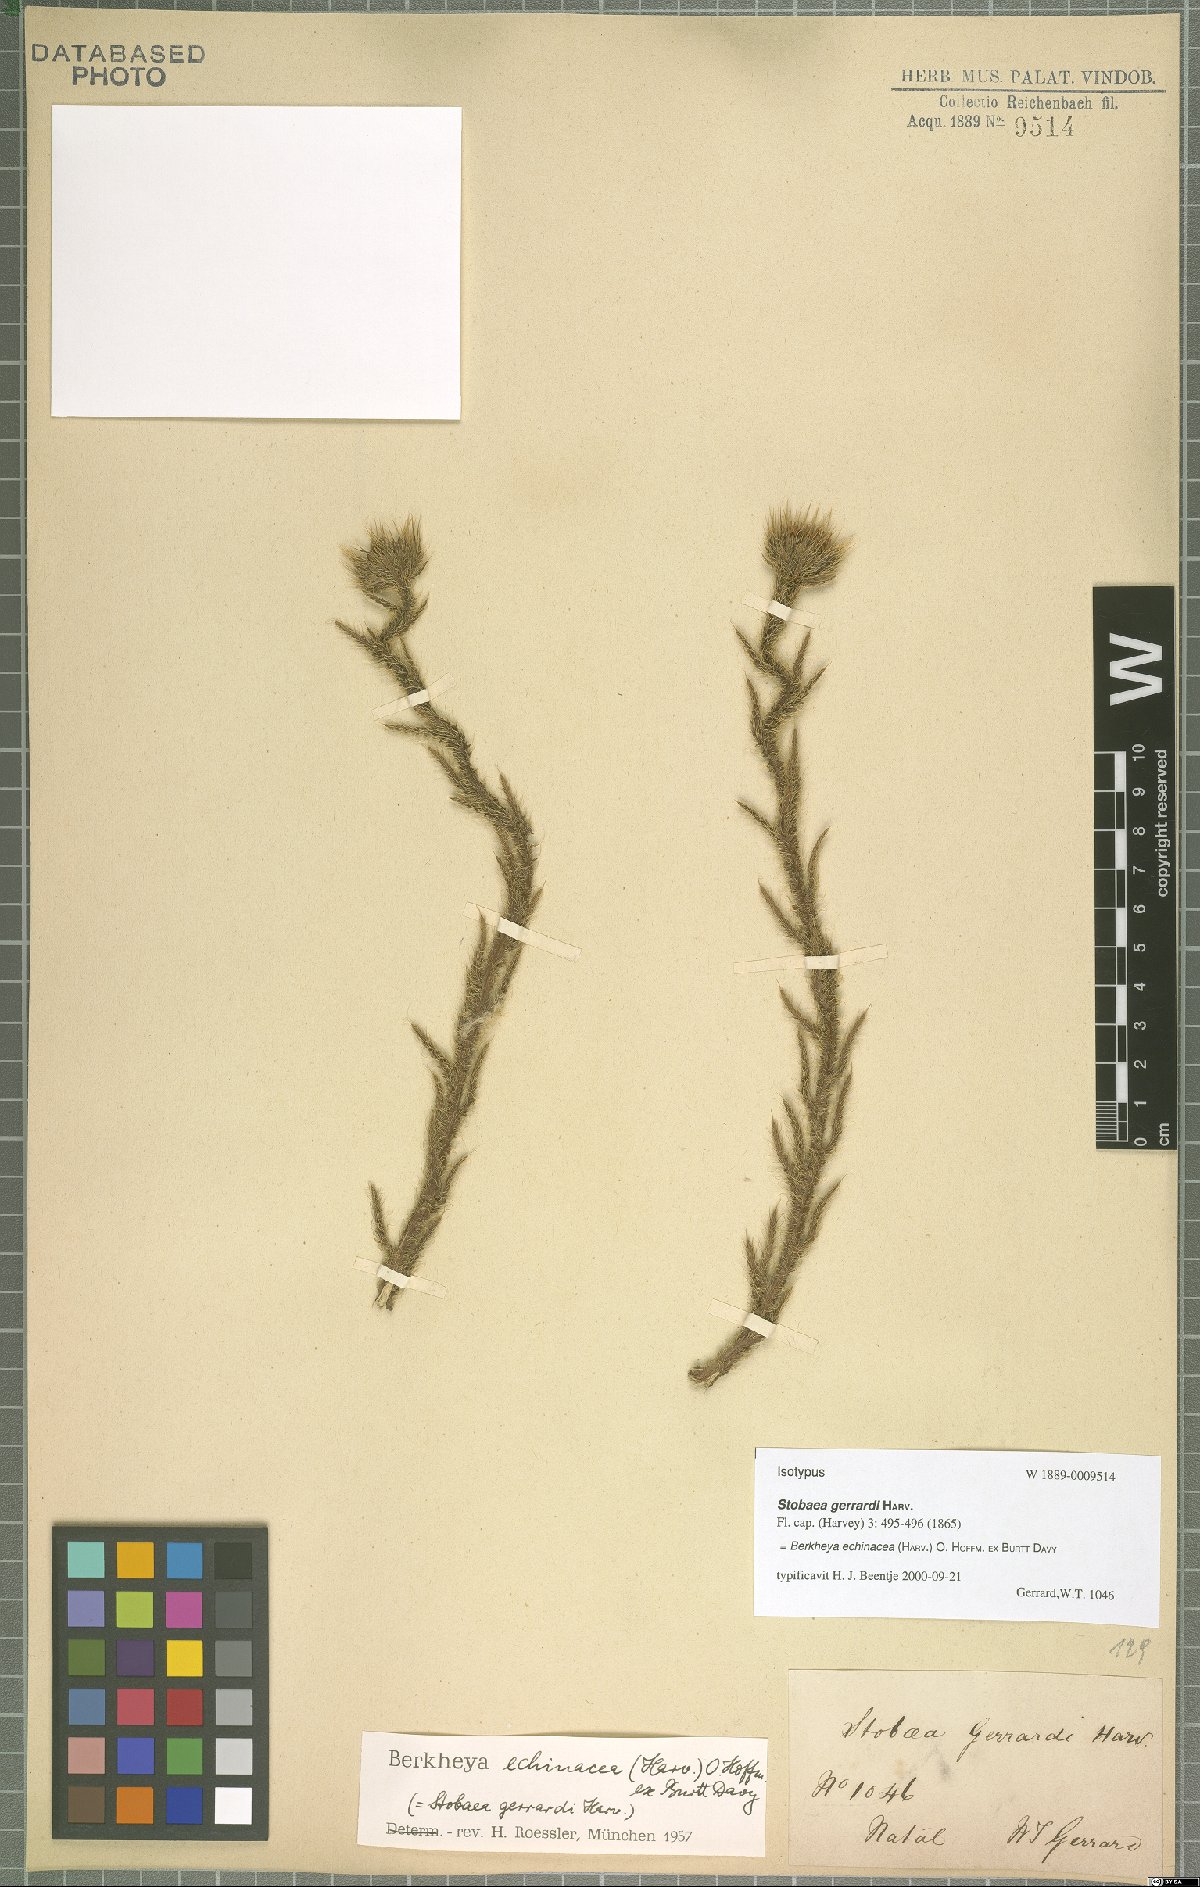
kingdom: Plantae
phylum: Tracheophyta
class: Magnoliopsida
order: Asterales
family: Asteraceae
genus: Berkheya
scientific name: Berkheya echinacea
